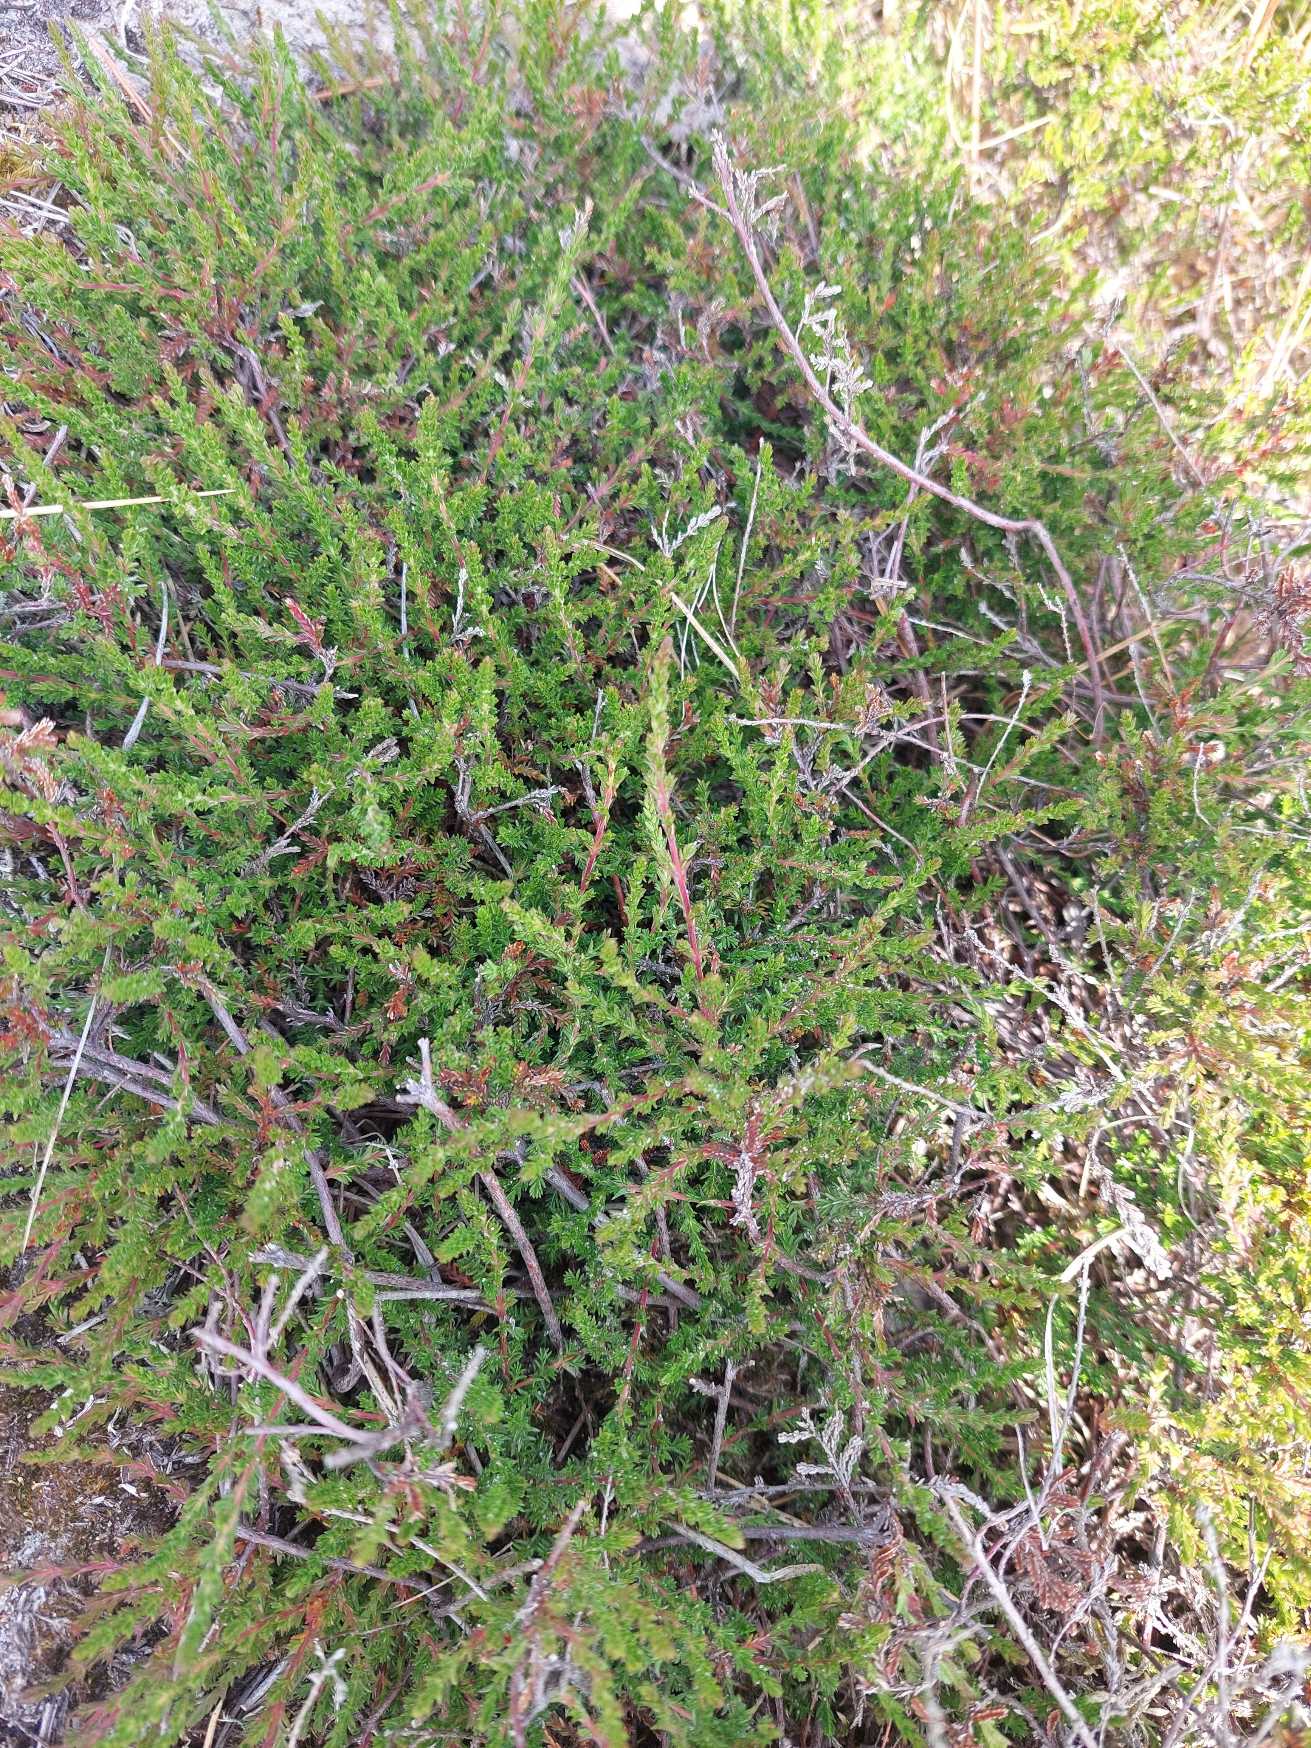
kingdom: Plantae
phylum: Tracheophyta
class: Magnoliopsida
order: Ericales
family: Ericaceae
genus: Calluna
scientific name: Calluna vulgaris
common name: Hedelyng
